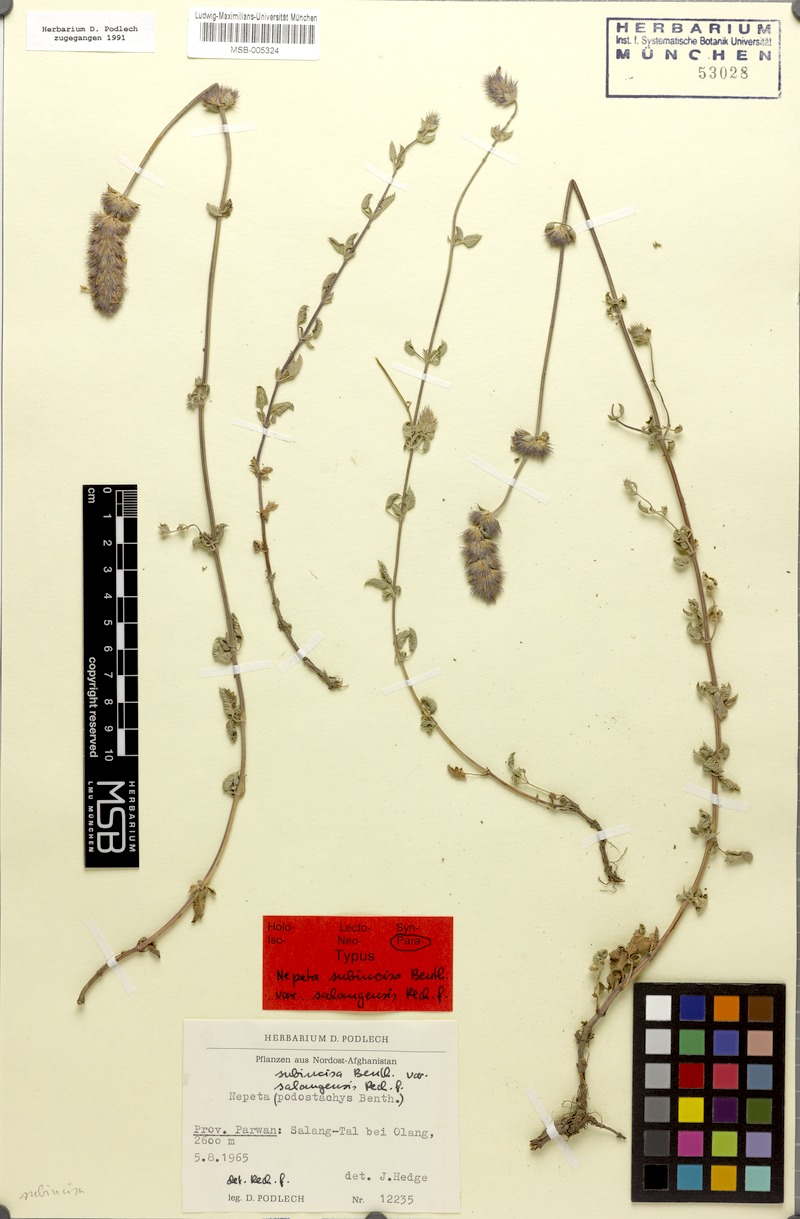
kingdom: Plantae
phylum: Tracheophyta
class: Magnoliopsida
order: Lamiales
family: Lamiaceae
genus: Nepeta
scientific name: Nepeta discolor
